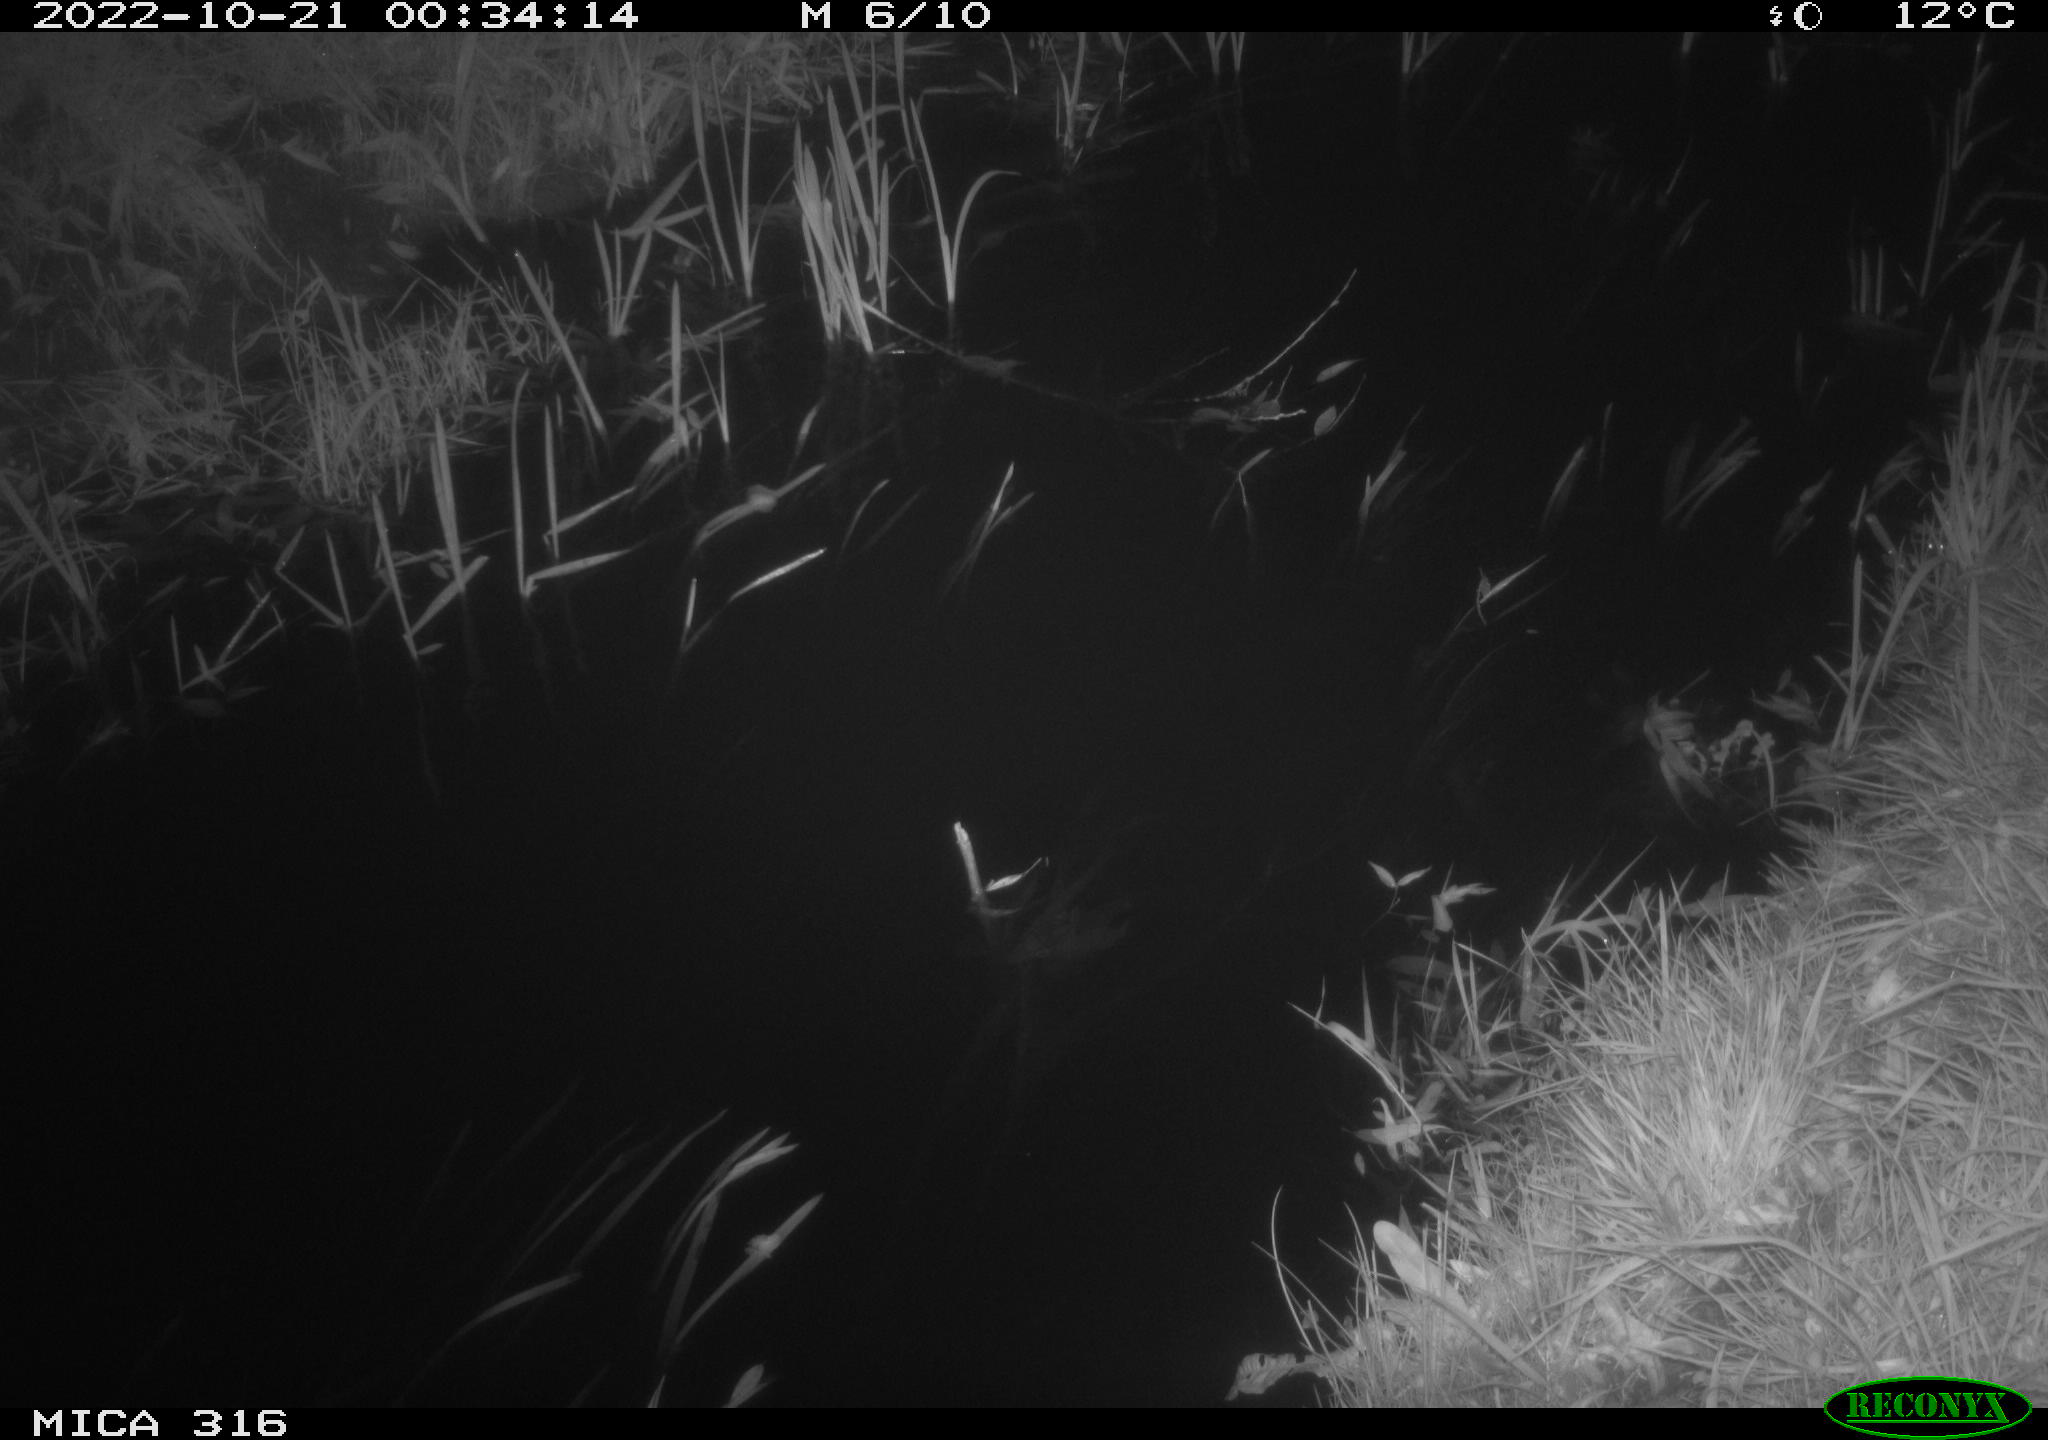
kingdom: Animalia
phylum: Chordata
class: Mammalia
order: Rodentia
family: Muridae
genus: Rattus
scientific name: Rattus norvegicus
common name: Brown rat
